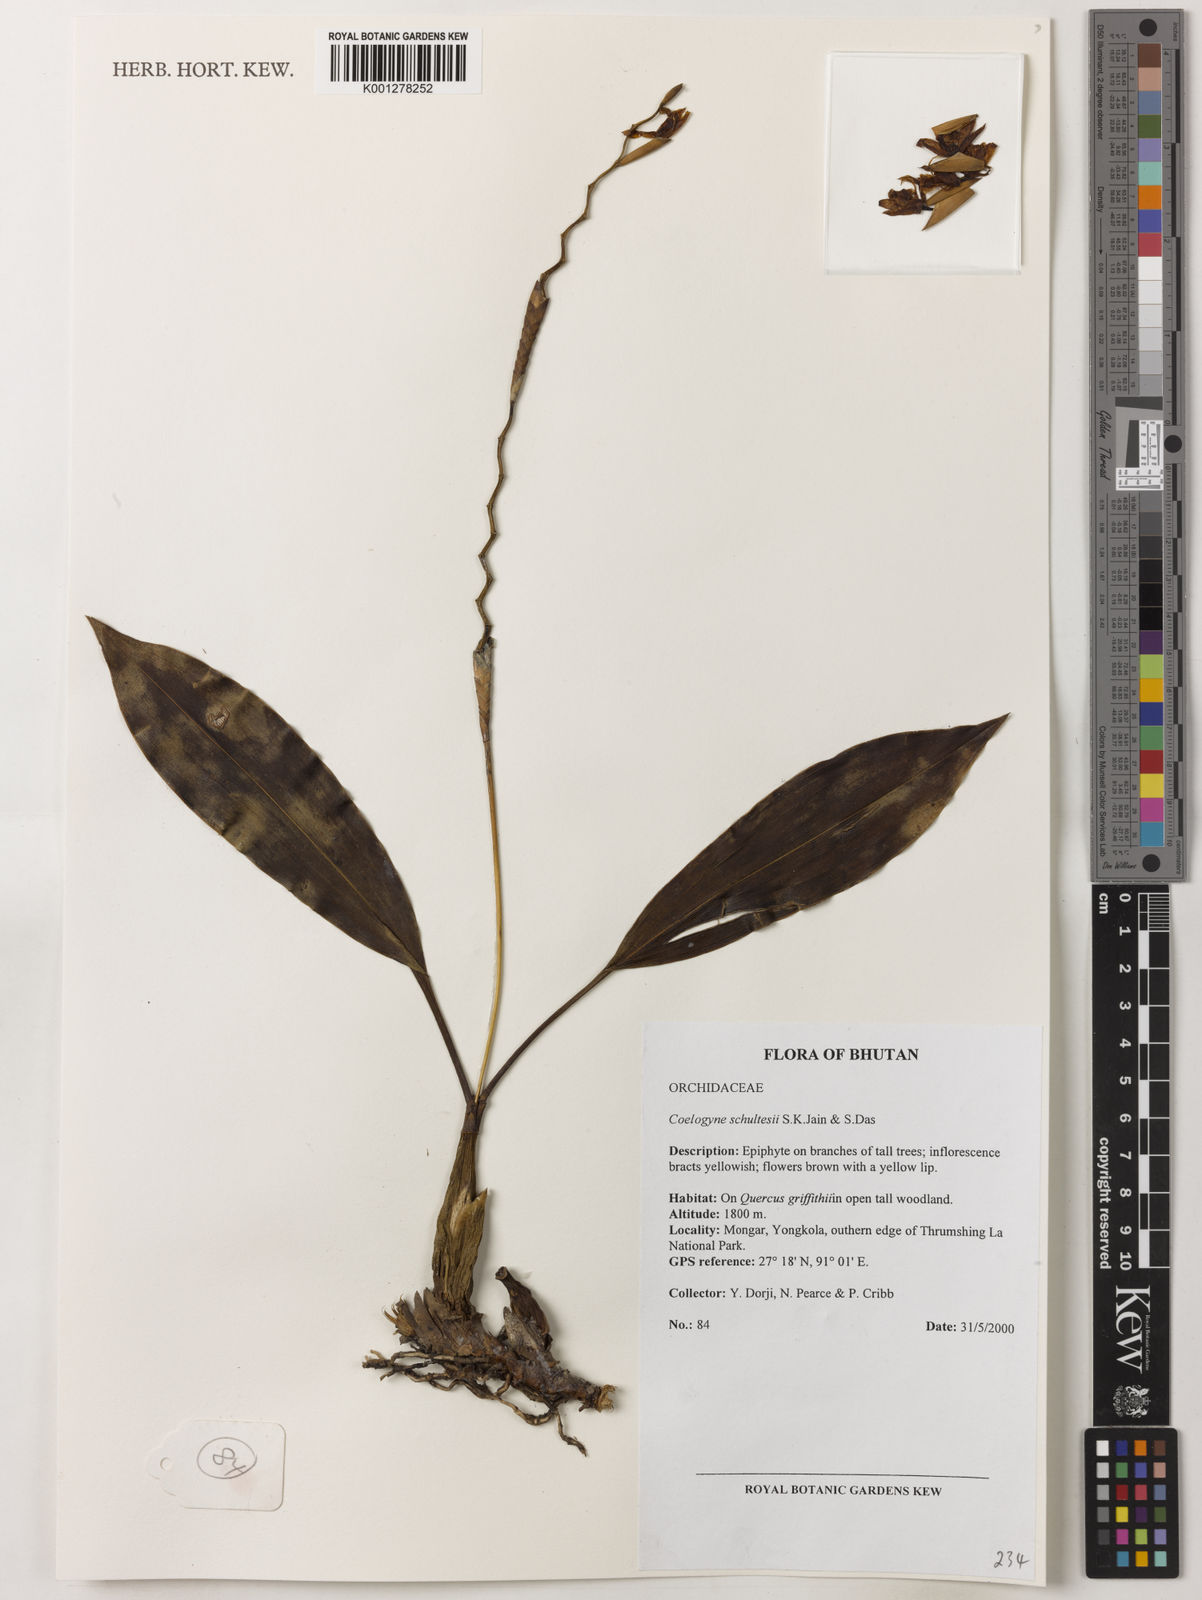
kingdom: Plantae
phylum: Tracheophyta
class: Liliopsida
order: Asparagales
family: Orchidaceae
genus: Coelogyne
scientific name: Coelogyne schultesii
